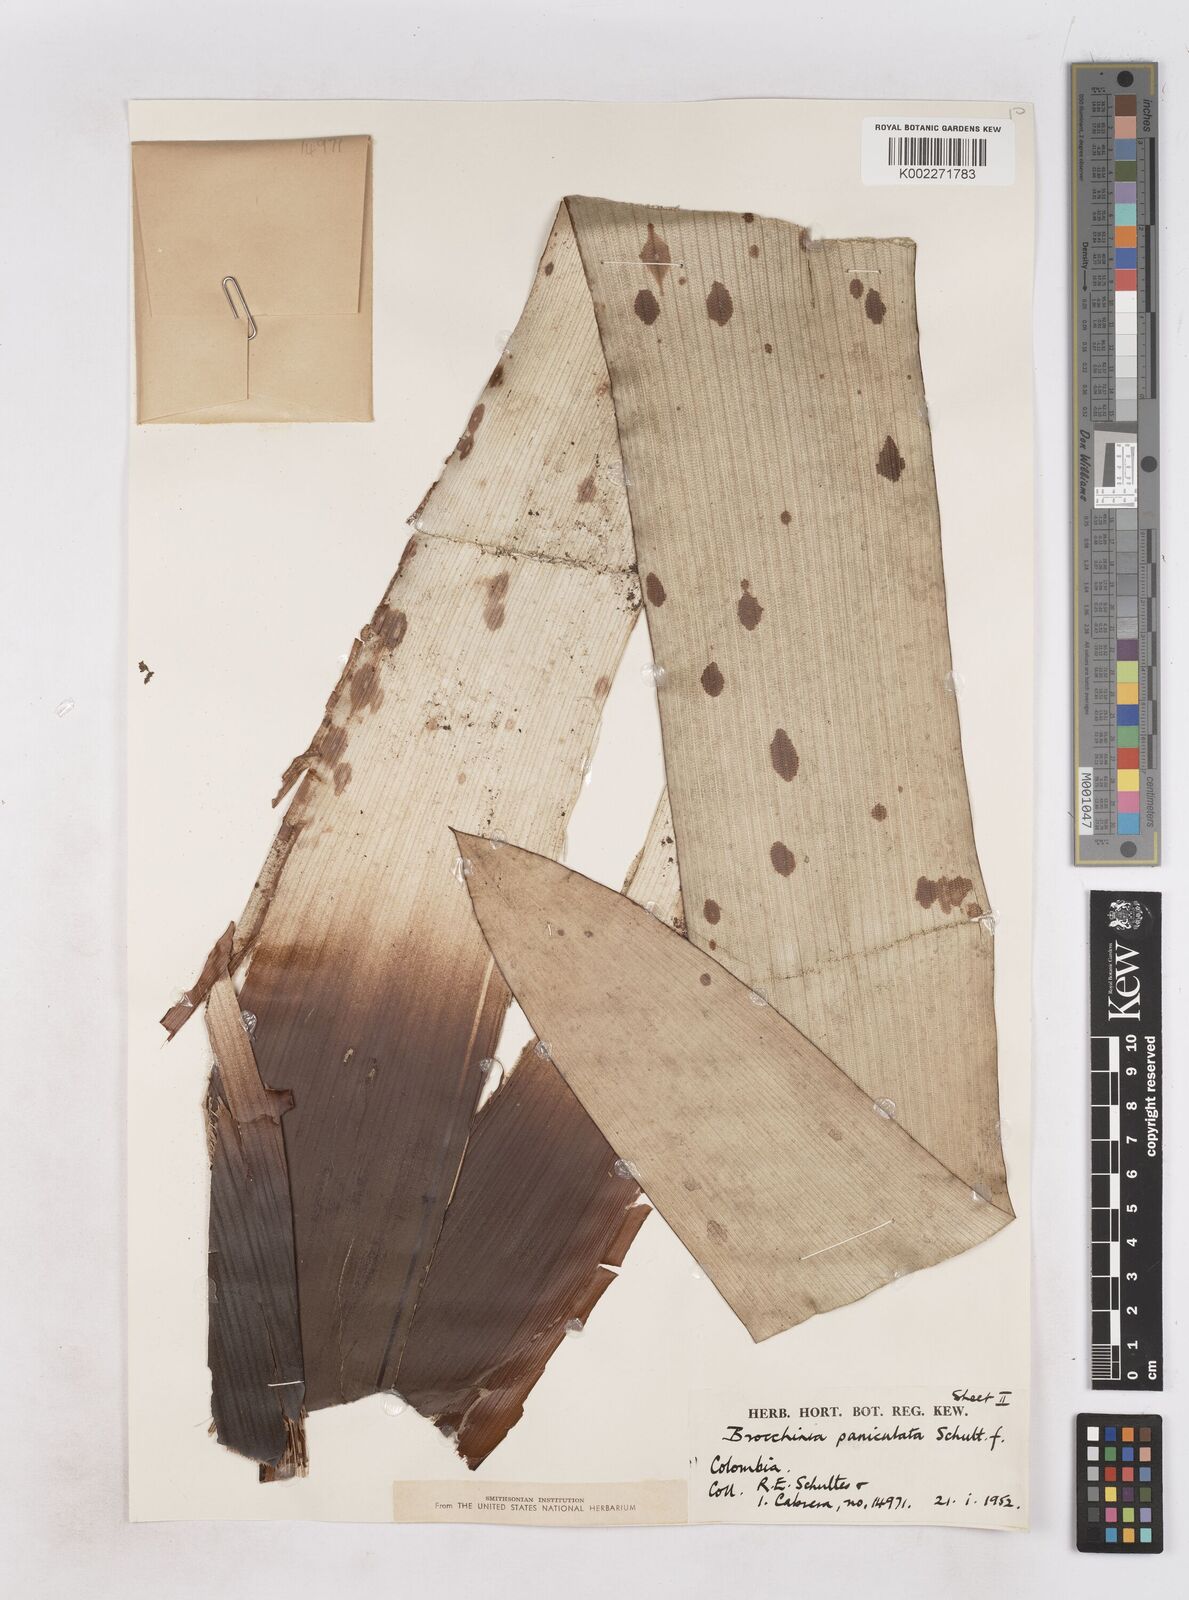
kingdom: Plantae
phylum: Tracheophyta
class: Liliopsida
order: Poales
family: Bromeliaceae
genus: Brocchinia
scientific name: Brocchinia paniculata
